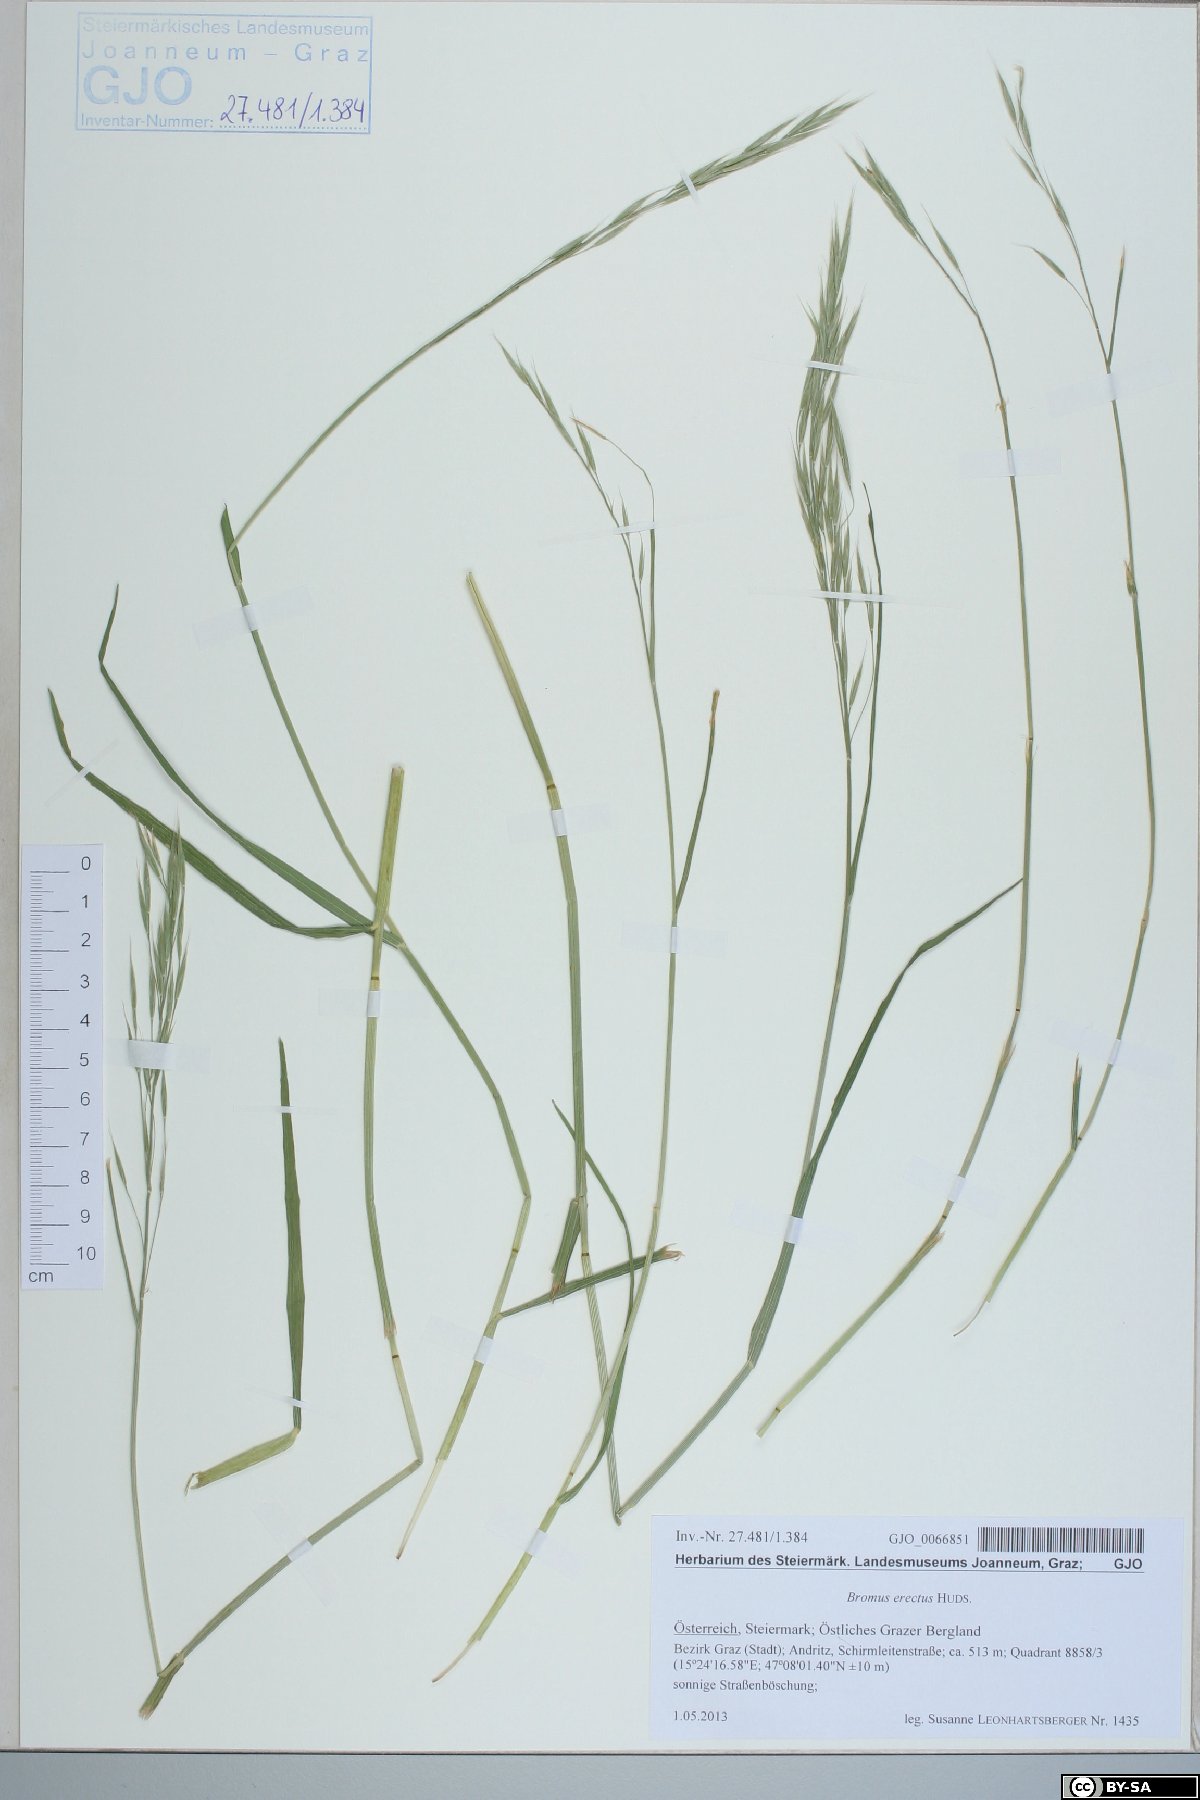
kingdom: Plantae
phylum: Tracheophyta
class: Liliopsida
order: Poales
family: Poaceae
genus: Bromus
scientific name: Bromus erectus
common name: Erect brome
